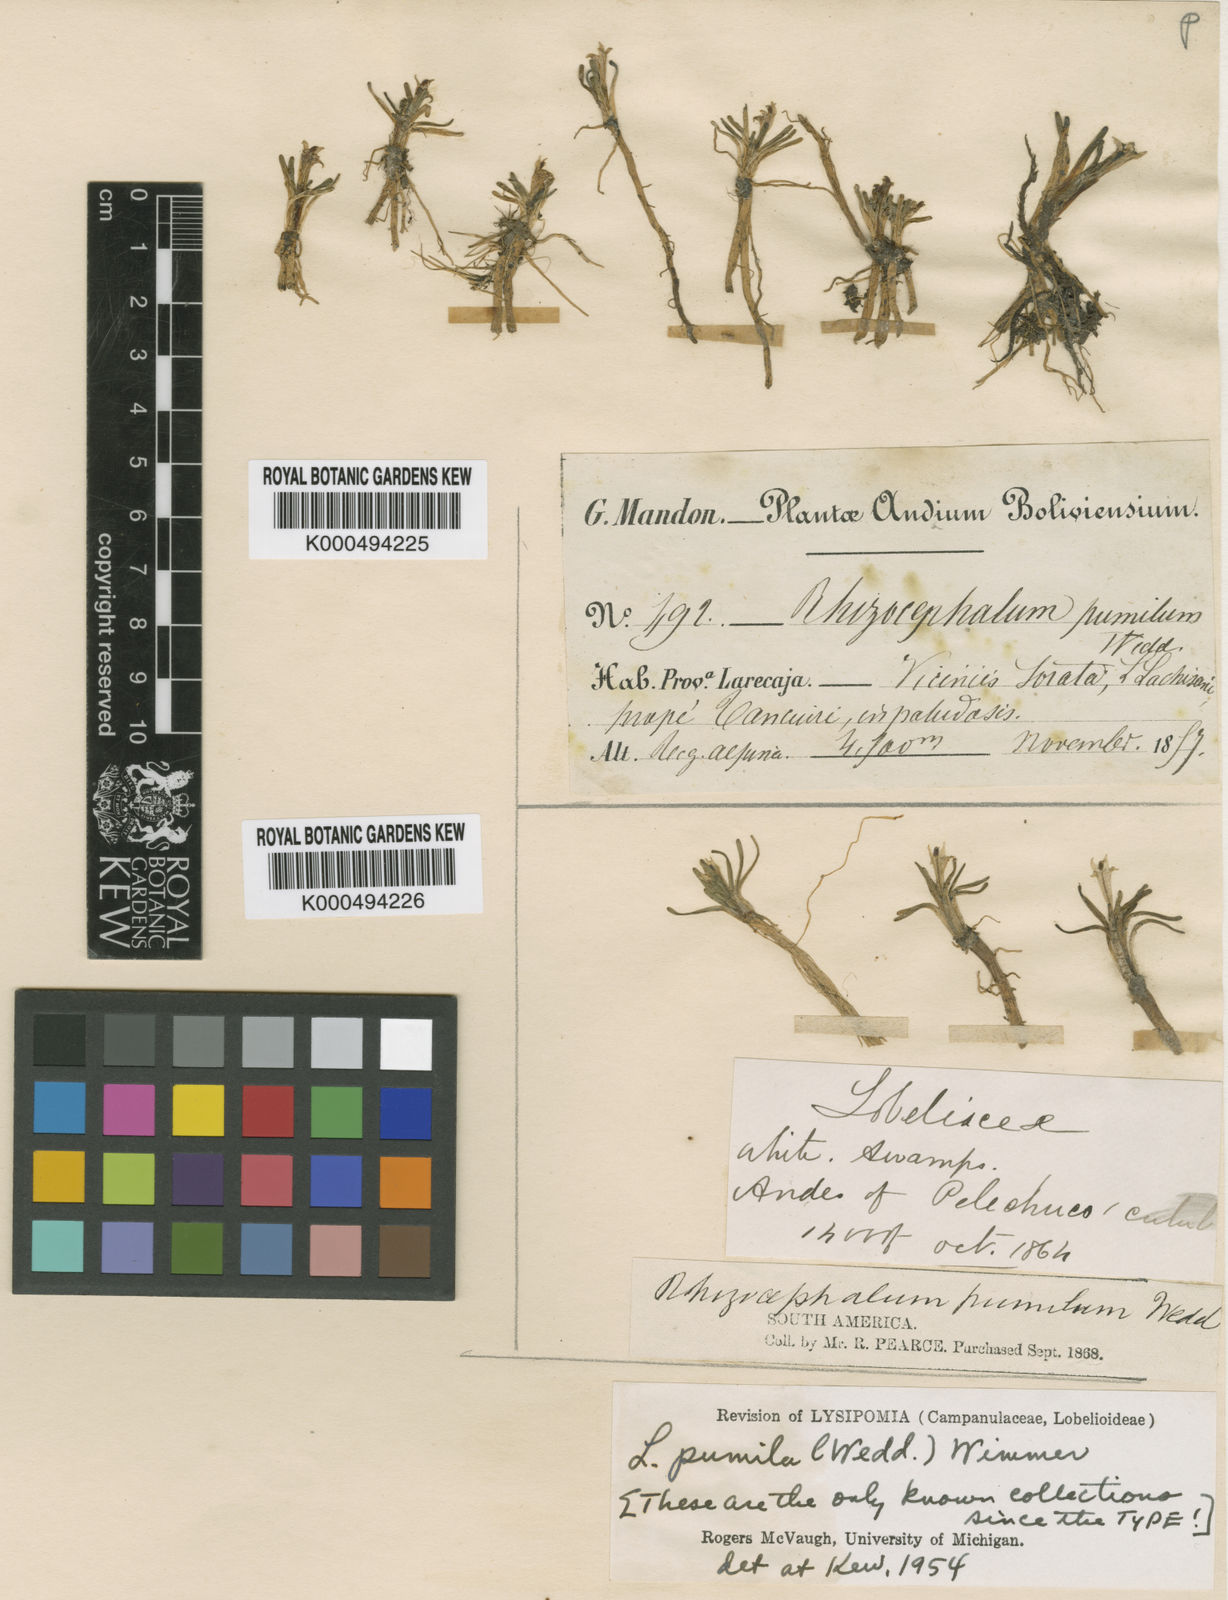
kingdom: Plantae
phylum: Tracheophyta
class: Magnoliopsida
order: Asterales
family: Campanulaceae
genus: Lysipomia
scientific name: Lysipomia pumila
